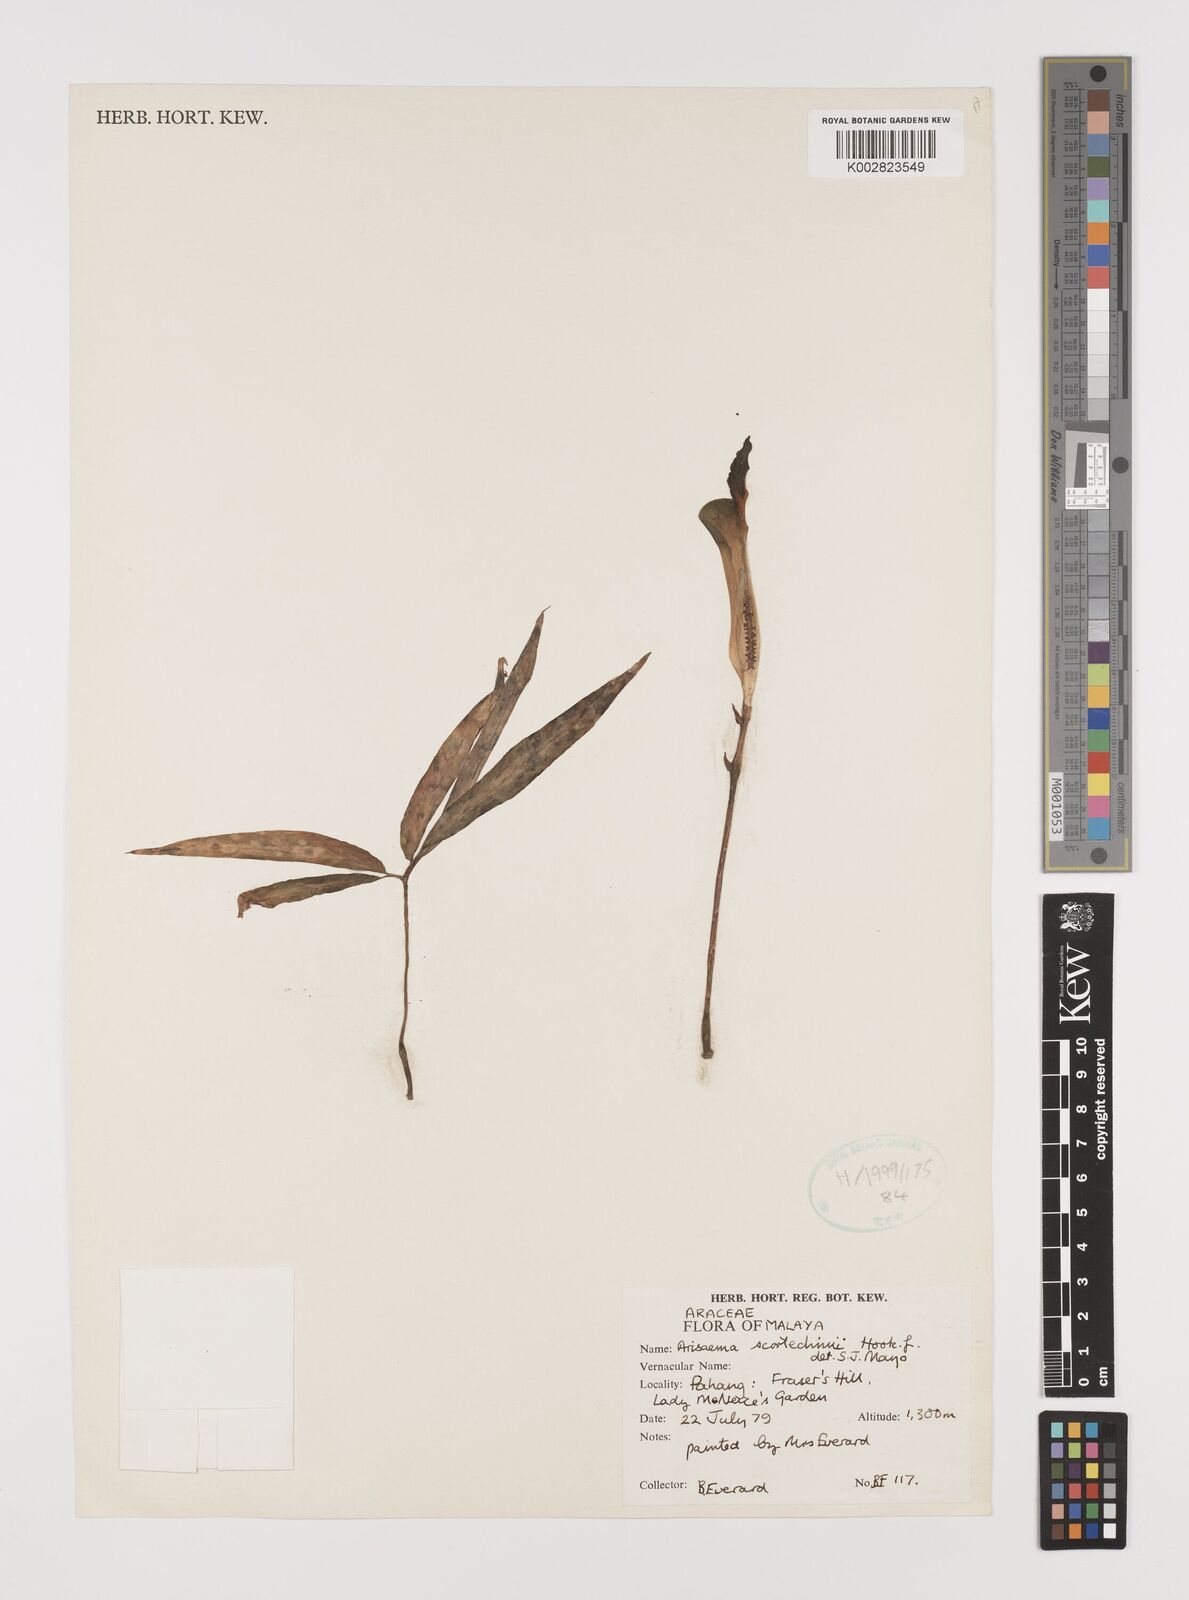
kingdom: Plantae
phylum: Tracheophyta
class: Liliopsida
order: Alismatales
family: Araceae
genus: Arisaema
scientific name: Arisaema scortechinii
